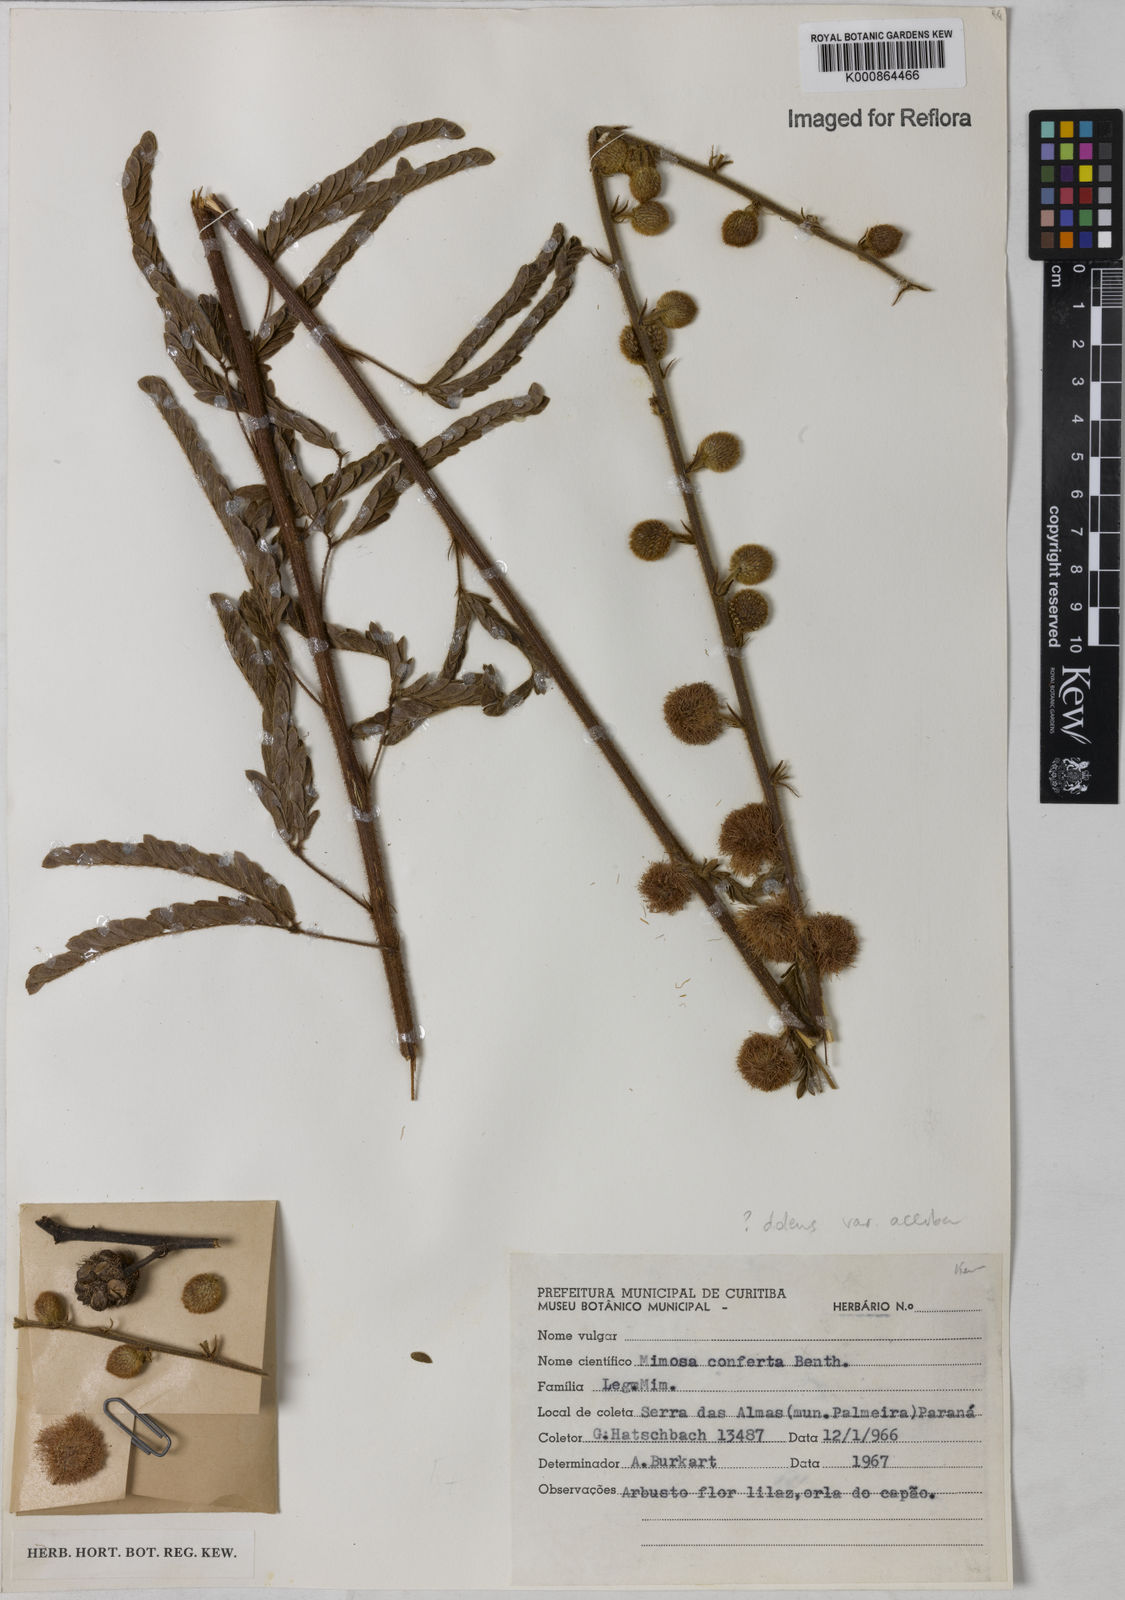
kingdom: Plantae
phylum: Tracheophyta
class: Magnoliopsida
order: Fabales
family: Fabaceae
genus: Mimosa
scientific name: Mimosa dolens
